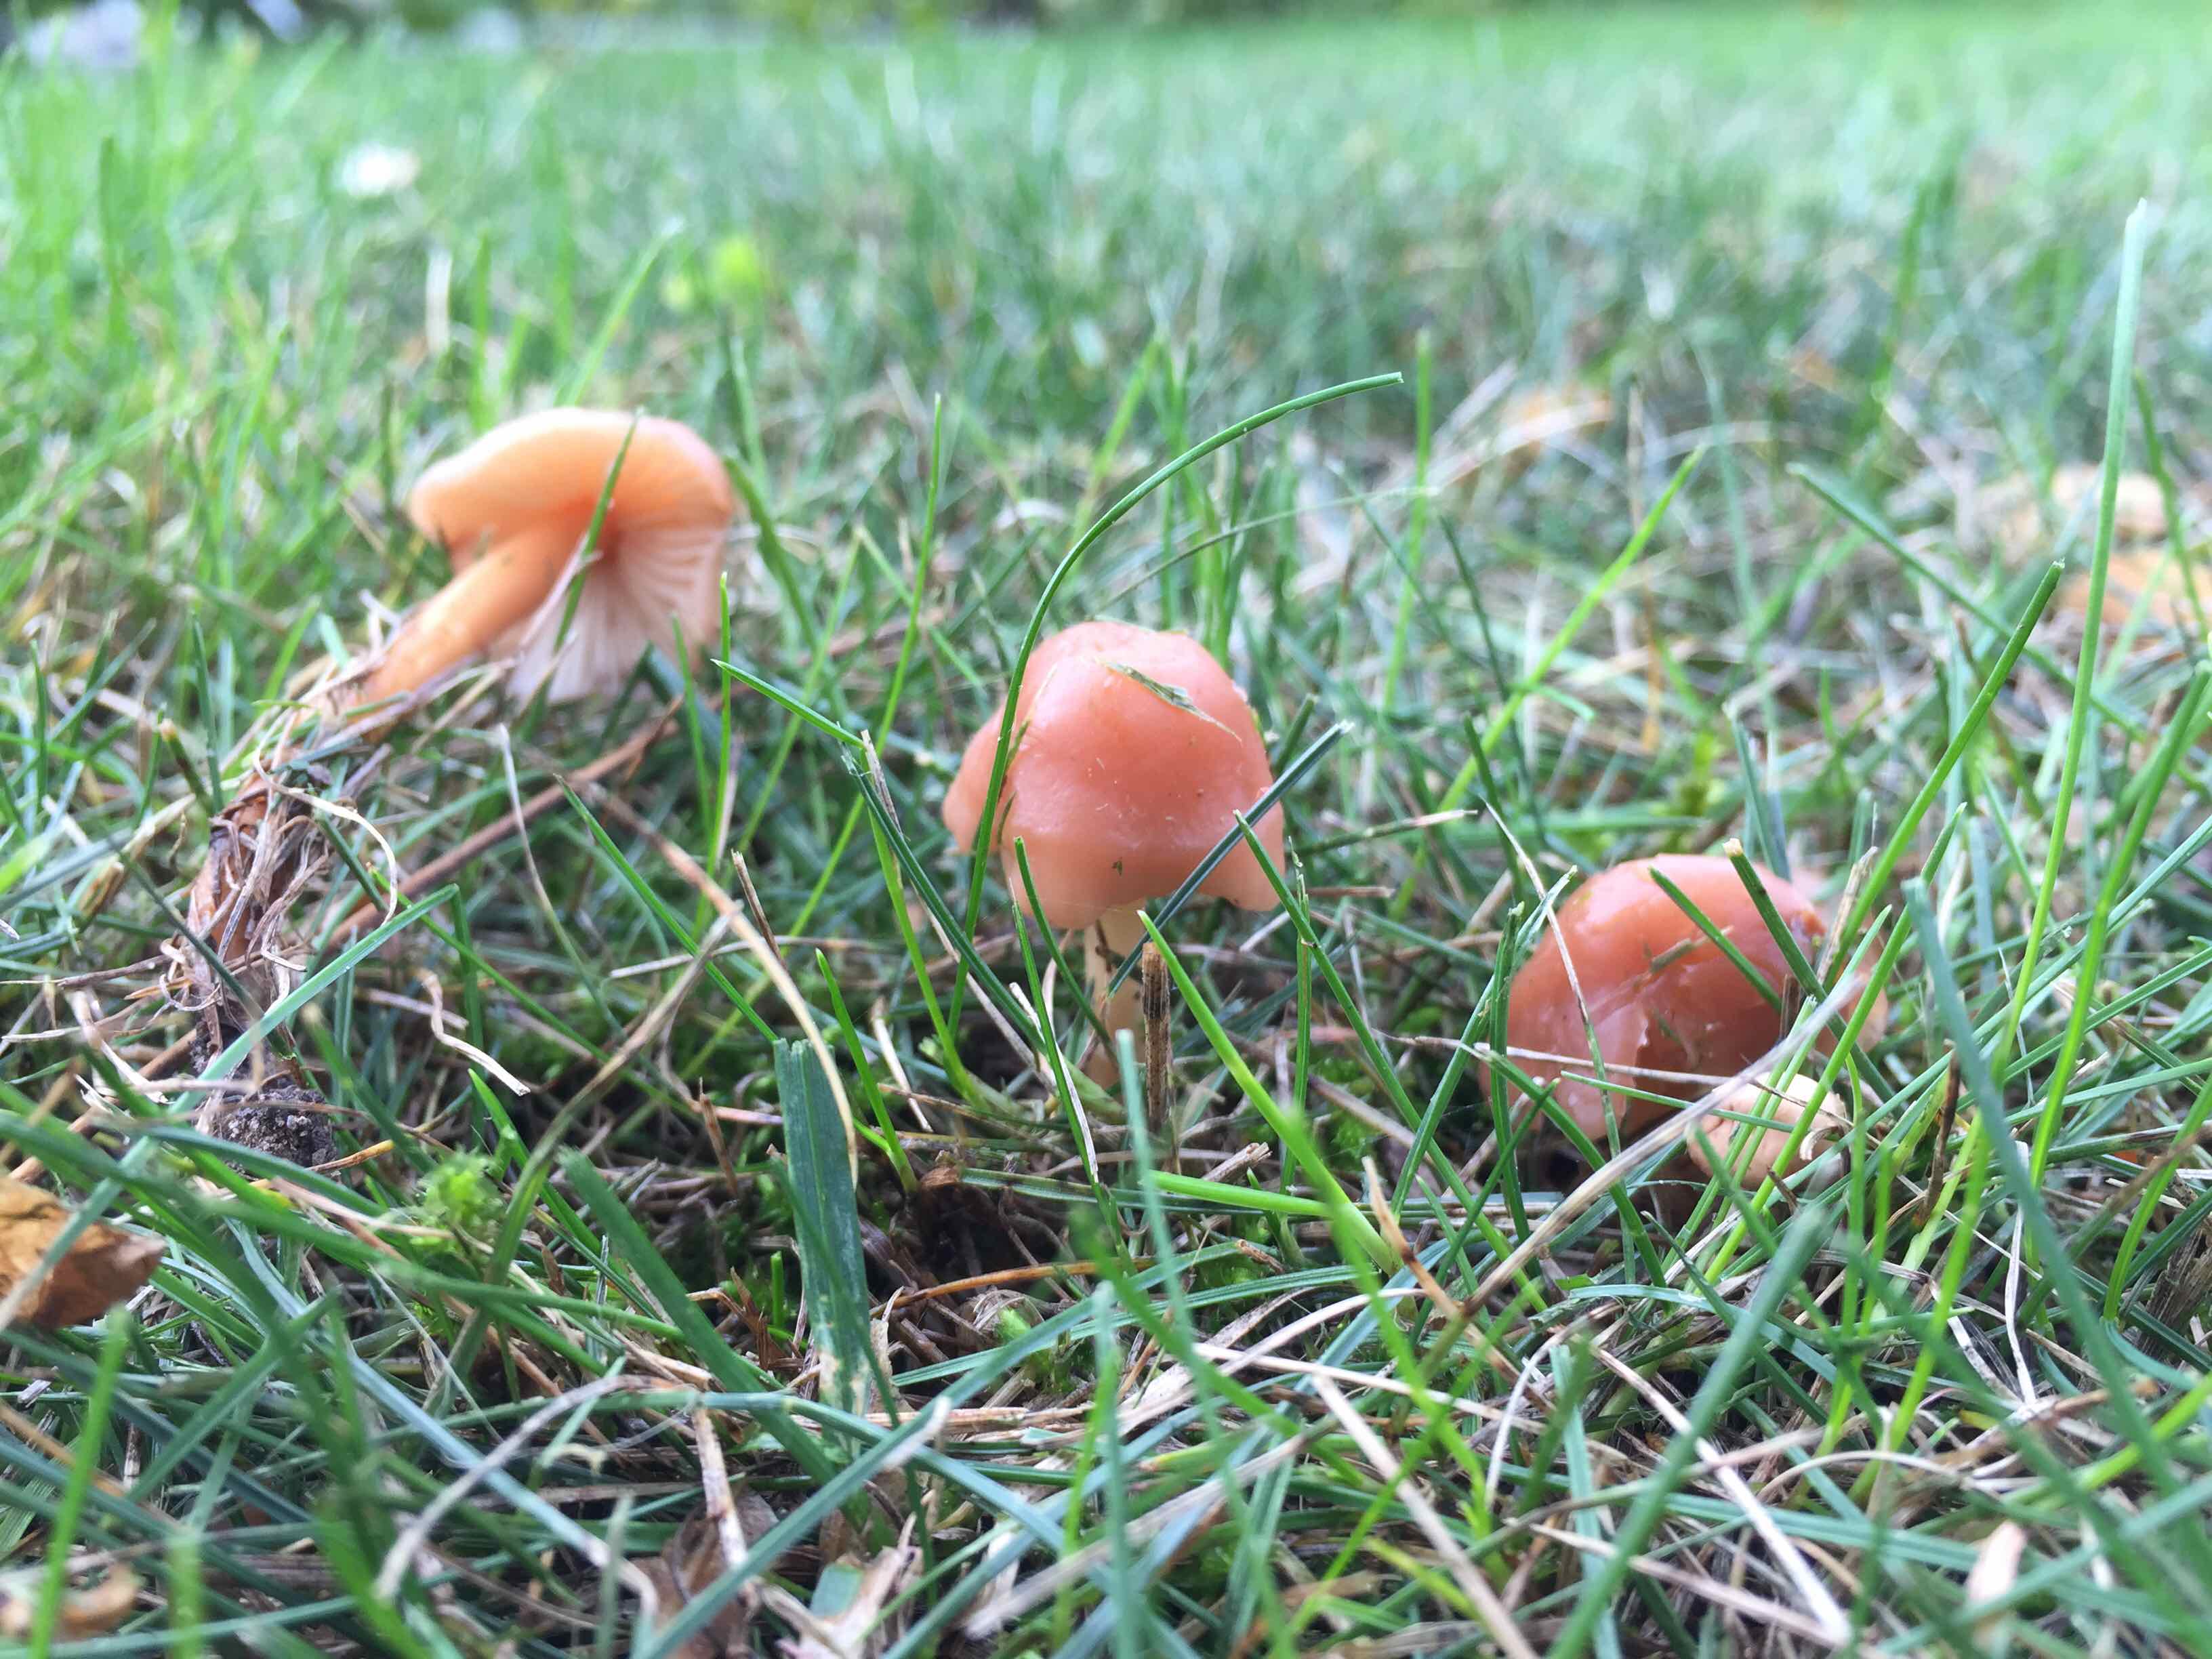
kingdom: Fungi
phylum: Basidiomycota
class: Agaricomycetes
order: Agaricales
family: Marasmiaceae
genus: Marasmius
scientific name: Marasmius oreades
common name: elledans-bruskhat
